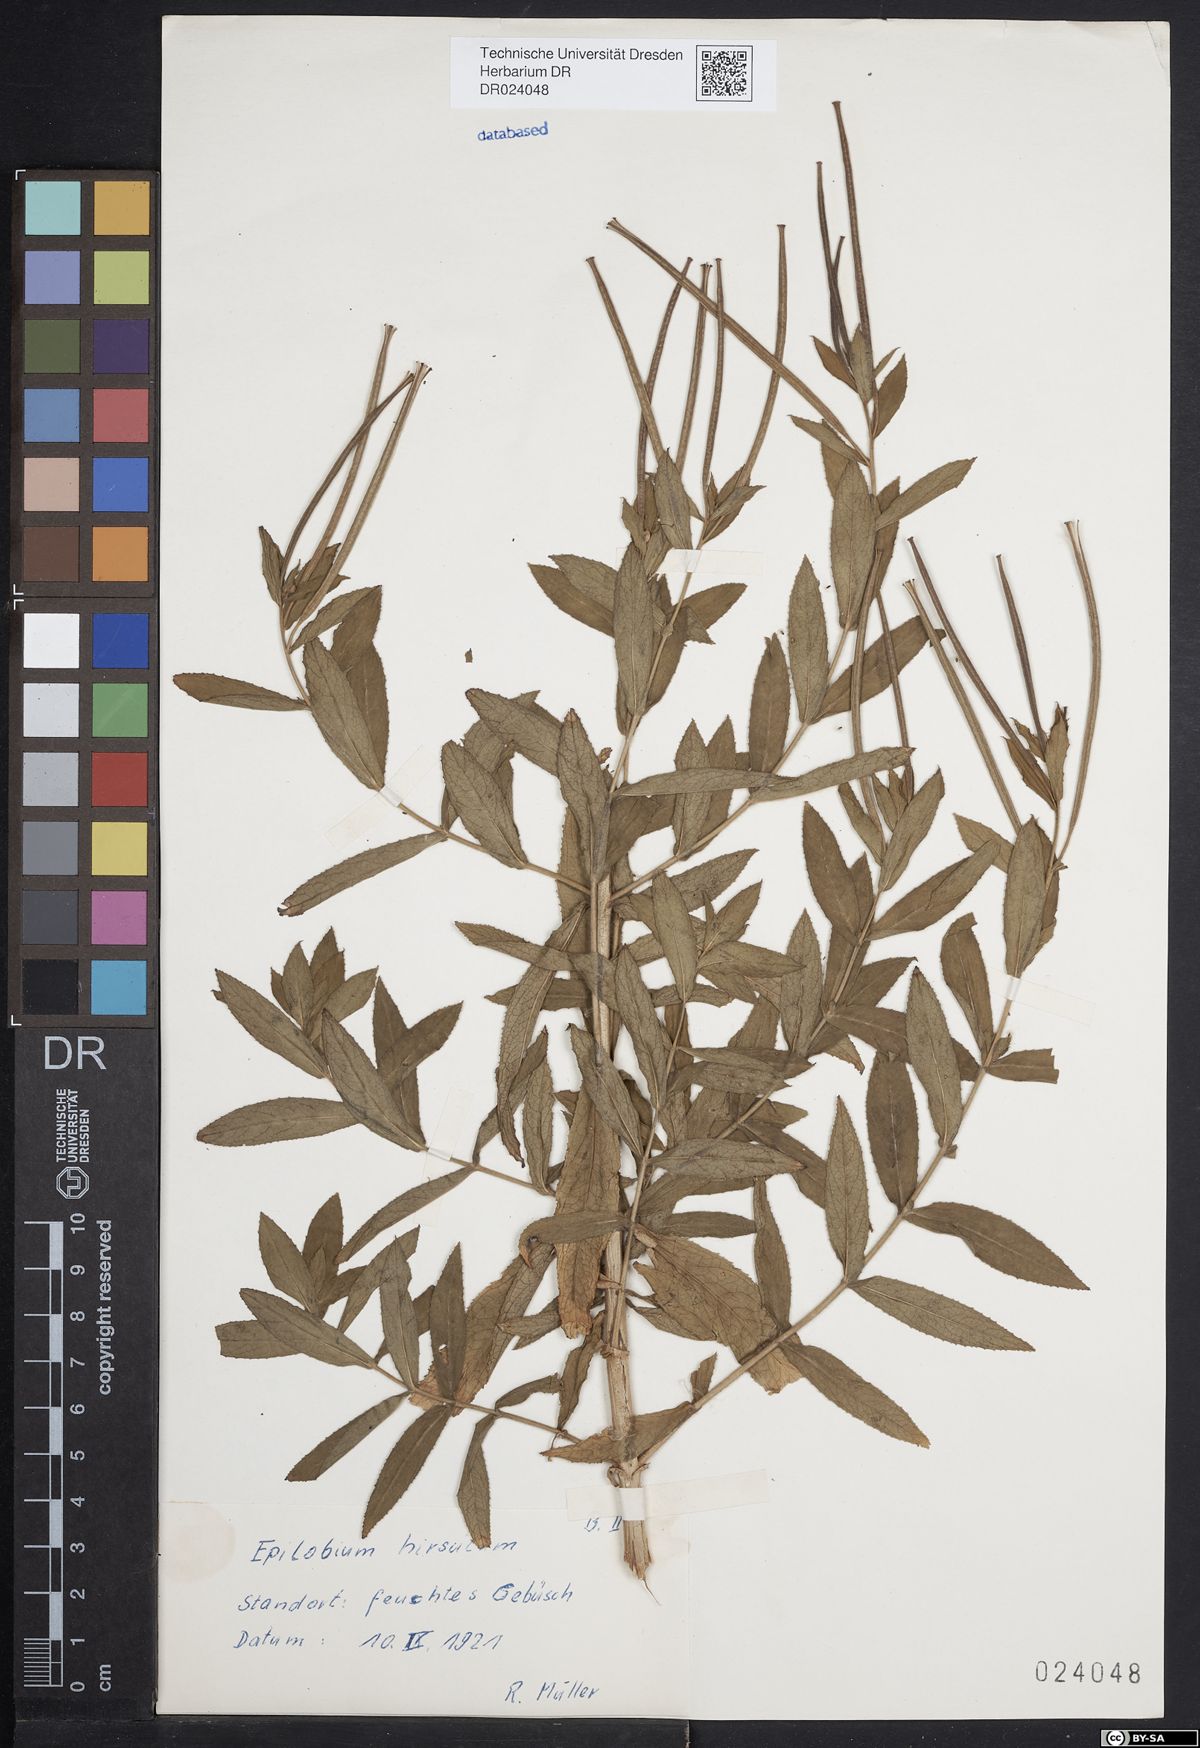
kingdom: Plantae
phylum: Tracheophyta
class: Magnoliopsida
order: Myrtales
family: Onagraceae
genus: Epilobium
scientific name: Epilobium hirsutum
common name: Great willowherb
